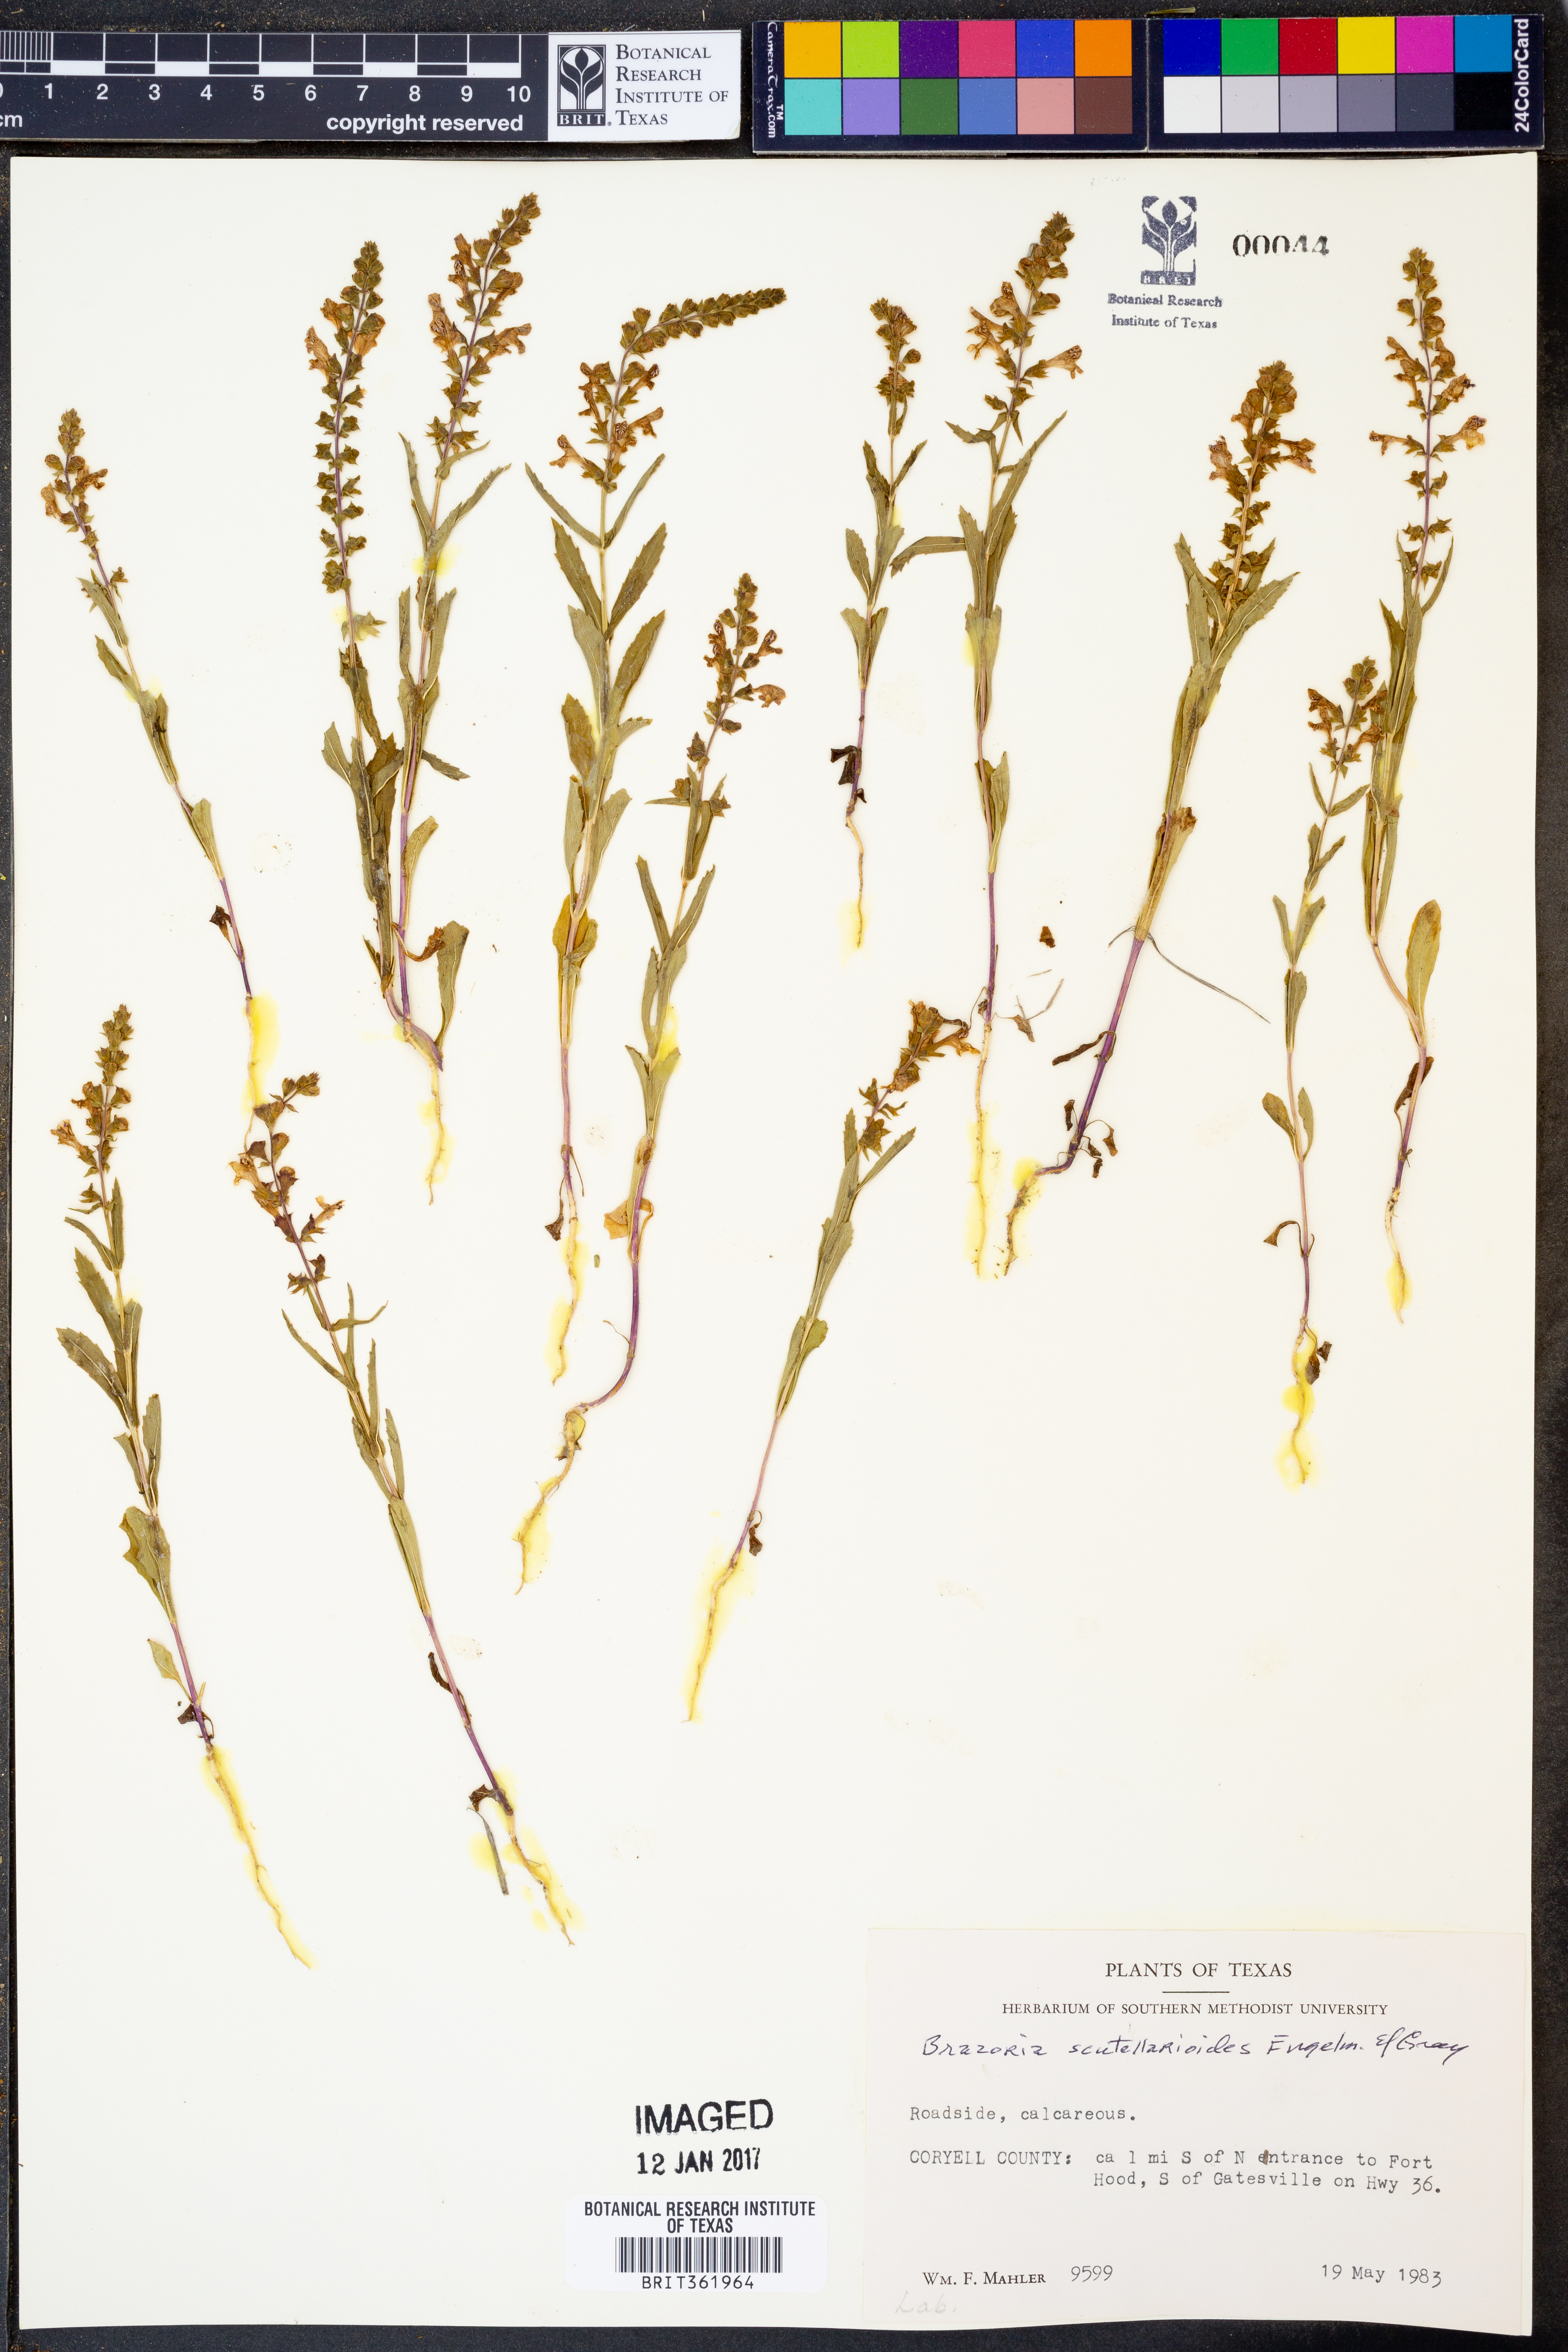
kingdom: Plantae
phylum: Tracheophyta
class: Magnoliopsida
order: Lamiales
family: Lamiaceae
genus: Warnockia
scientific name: Warnockia scutellarioides
